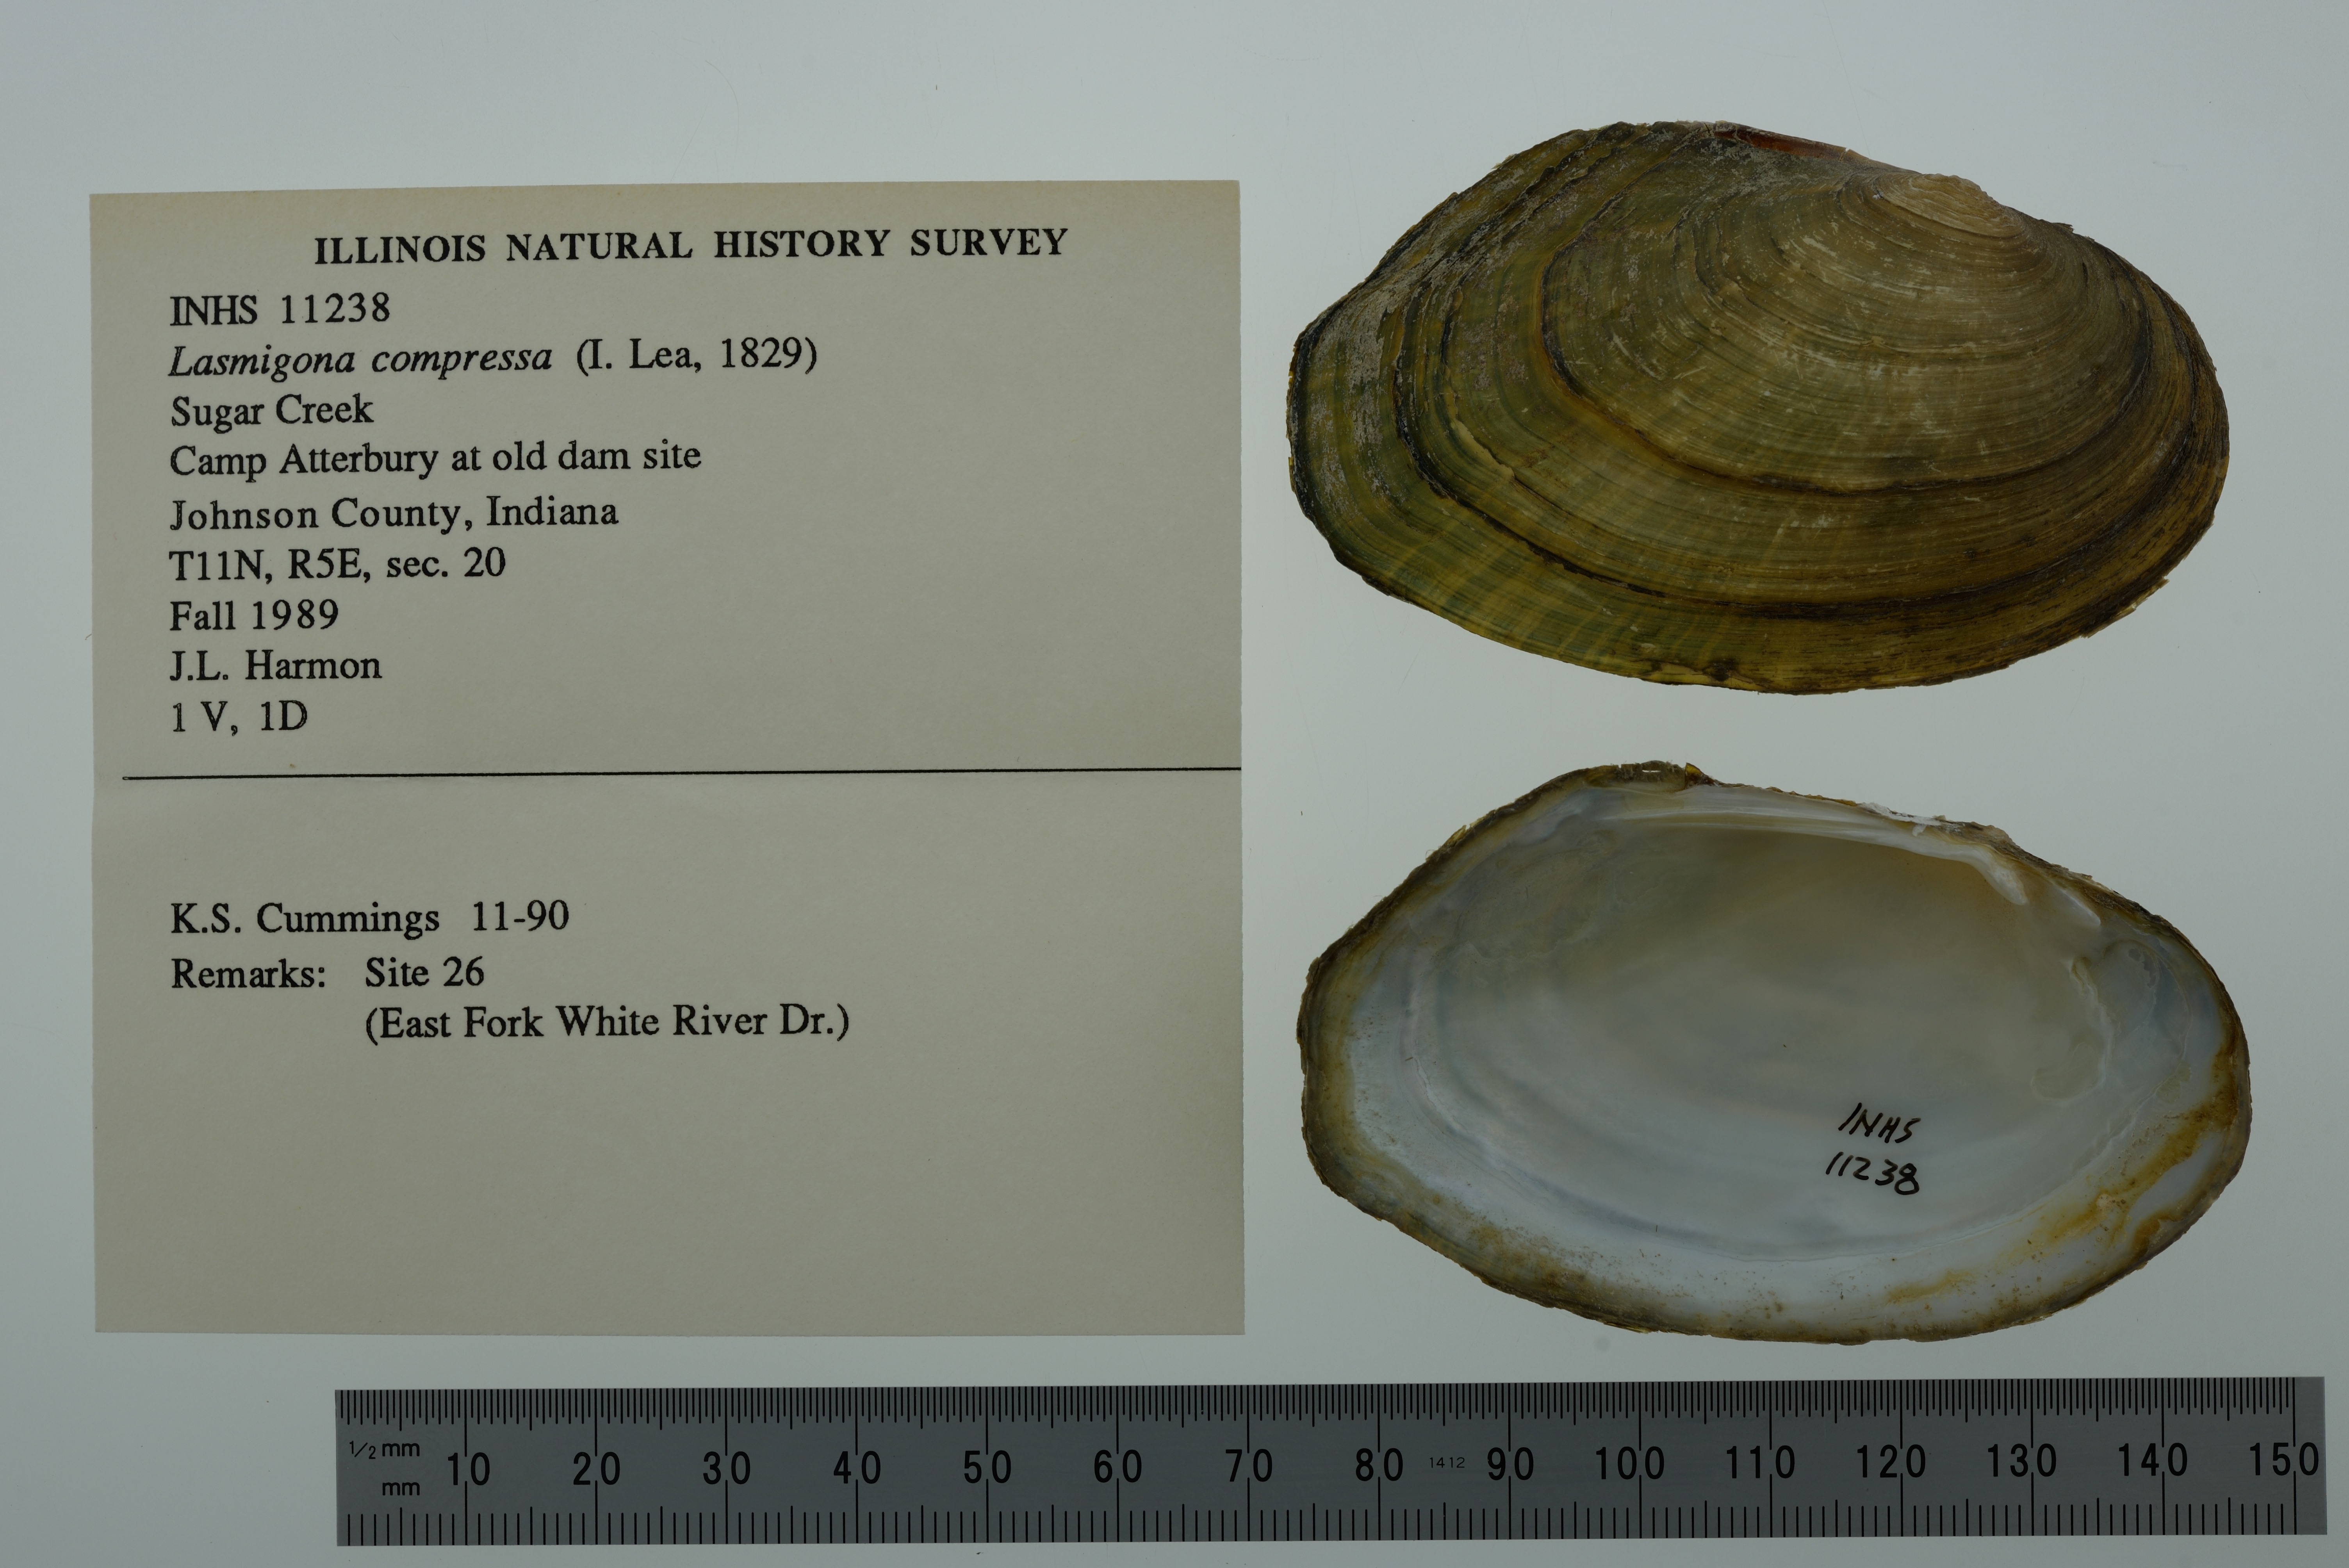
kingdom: Animalia
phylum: Mollusca
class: Bivalvia
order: Unionida
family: Unionidae
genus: Lasmigona
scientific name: Lasmigona compressa
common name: Creek heelsplitter
